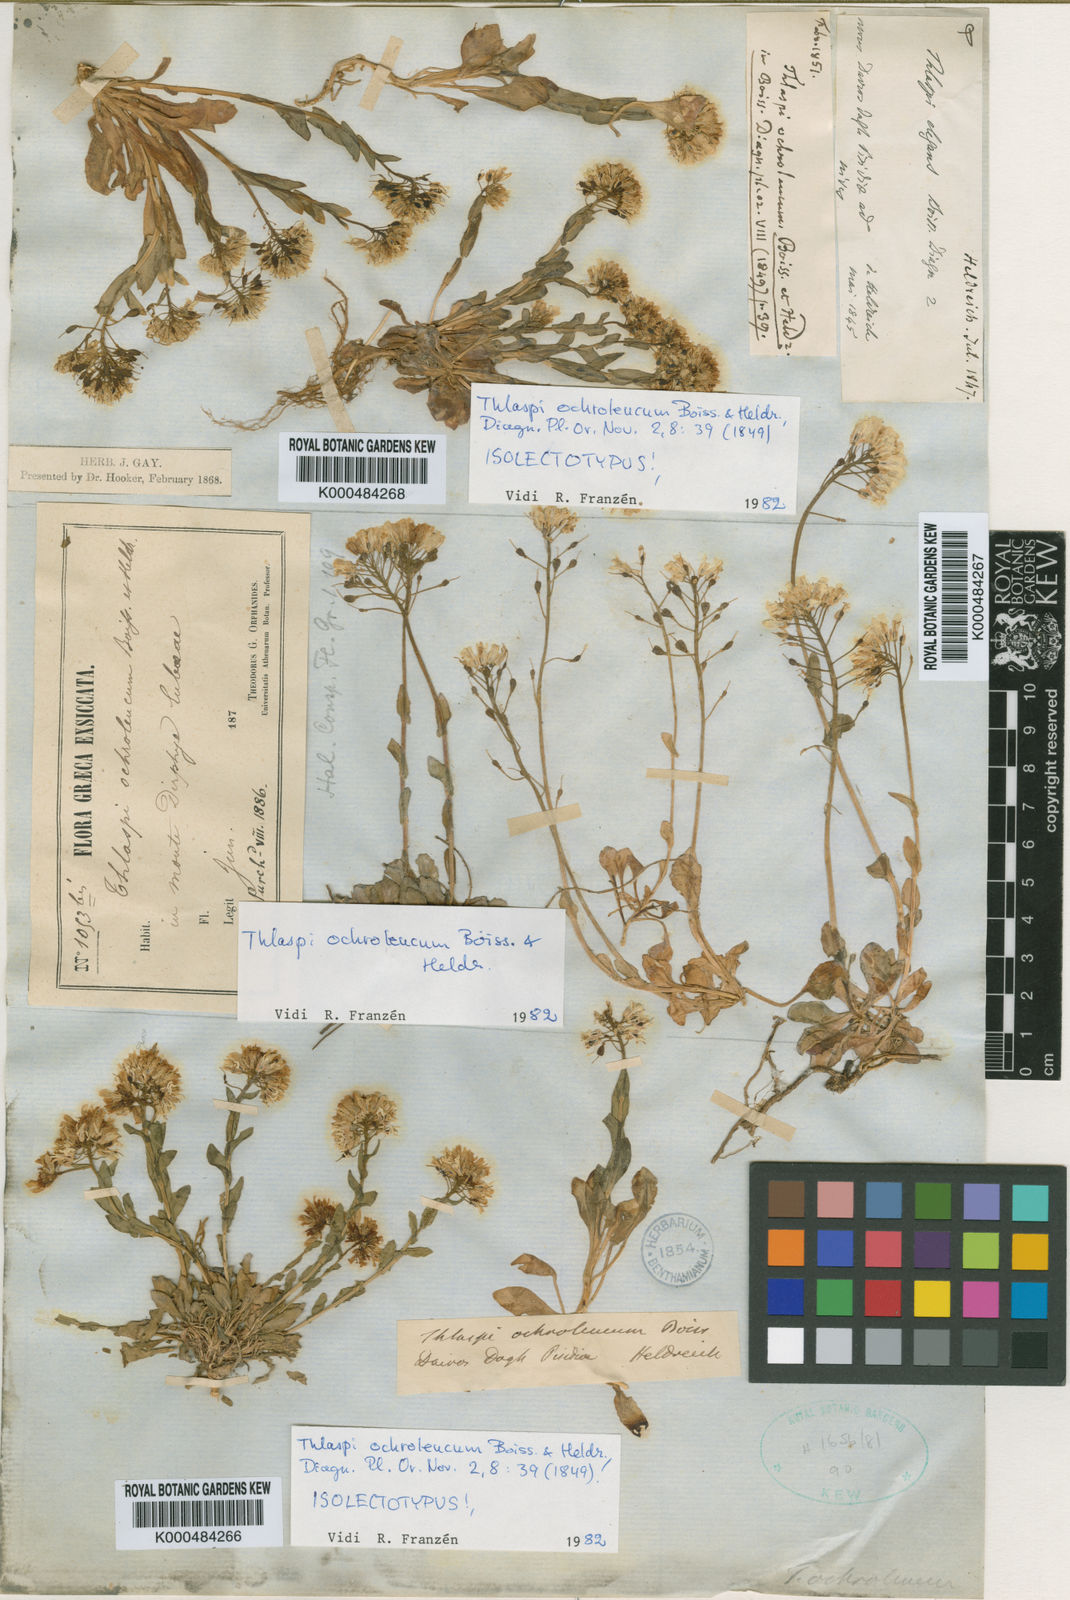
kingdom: Plantae
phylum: Tracheophyta
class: Magnoliopsida
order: Brassicales
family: Brassicaceae
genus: Noccaea
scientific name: Noccaea ochroleuca
